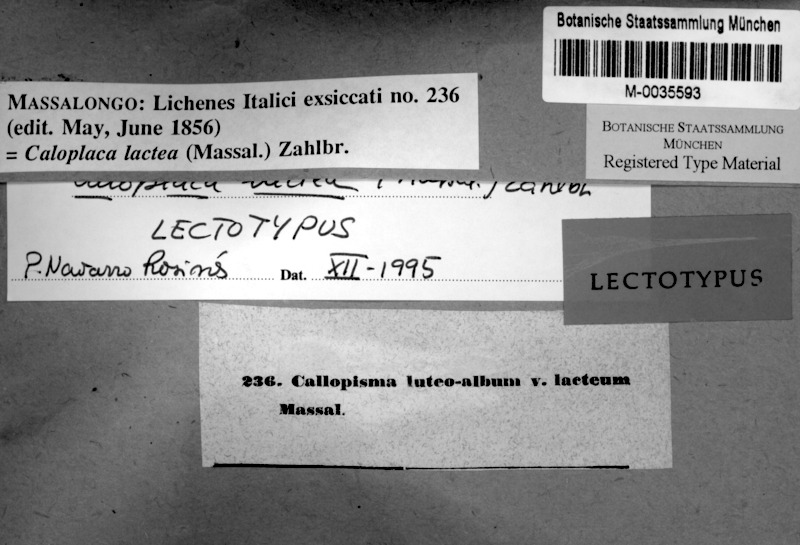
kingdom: Fungi
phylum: Ascomycota
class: Lecanoromycetes
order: Teloschistales
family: Teloschistaceae
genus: Caloplaca
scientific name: Caloplaca lactea
